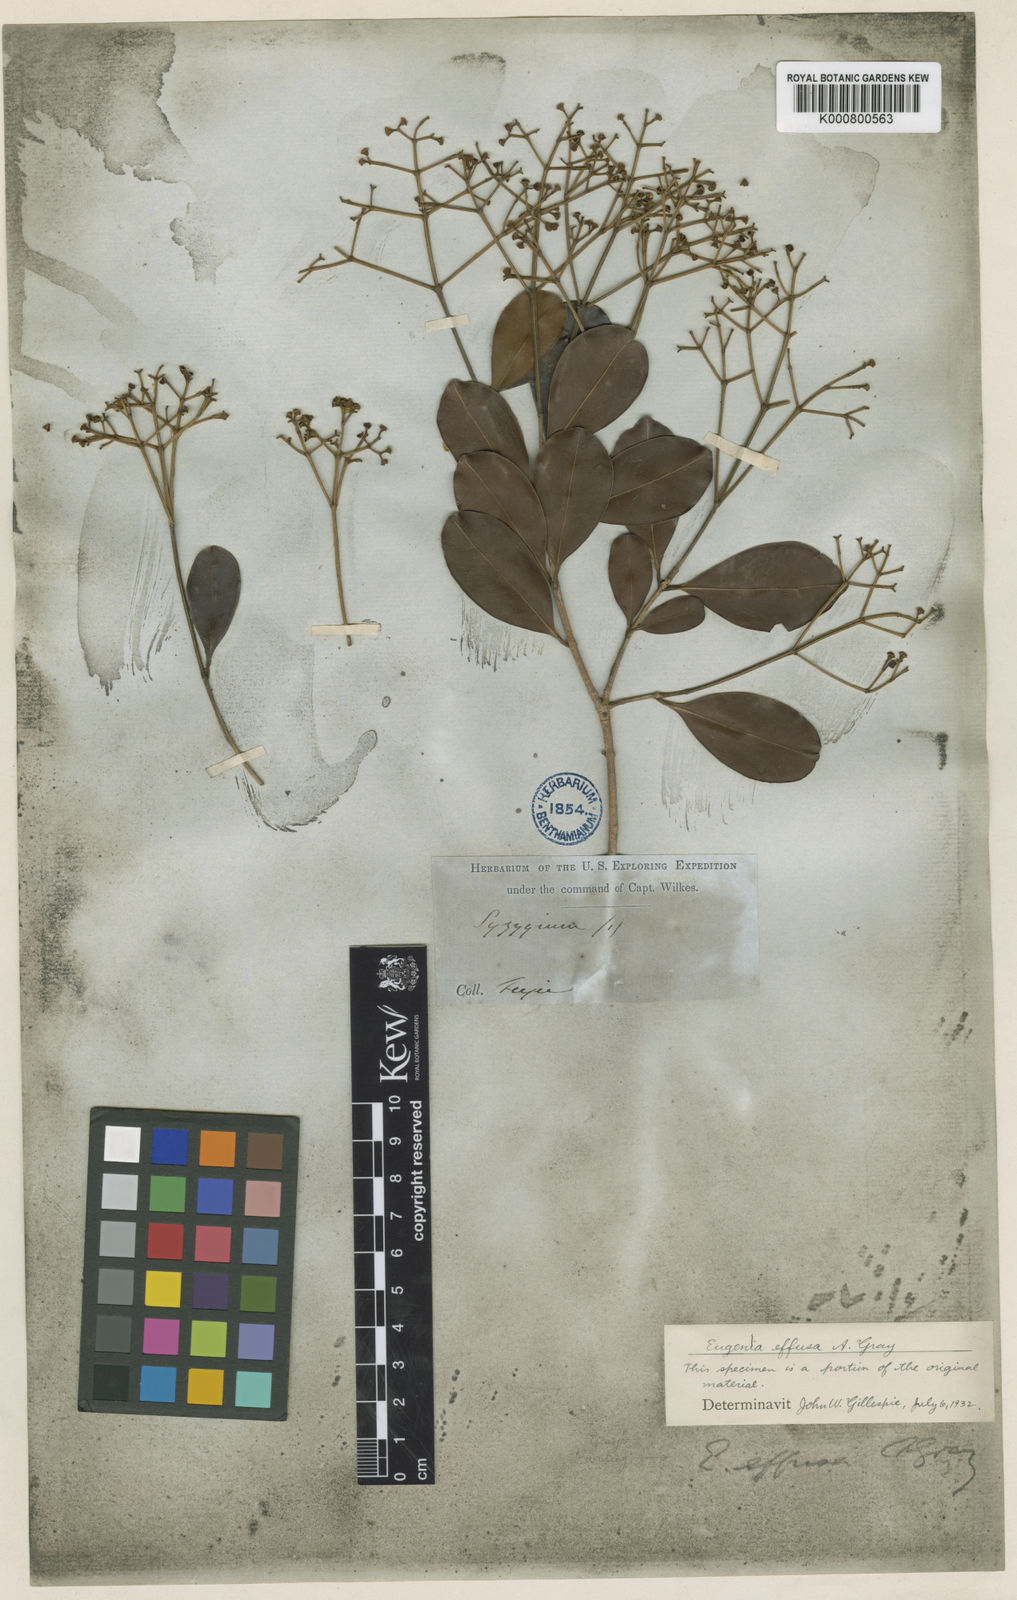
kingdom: Plantae
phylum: Tracheophyta
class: Magnoliopsida
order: Myrtales
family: Myrtaceae
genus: Syzygium
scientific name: Syzygium
